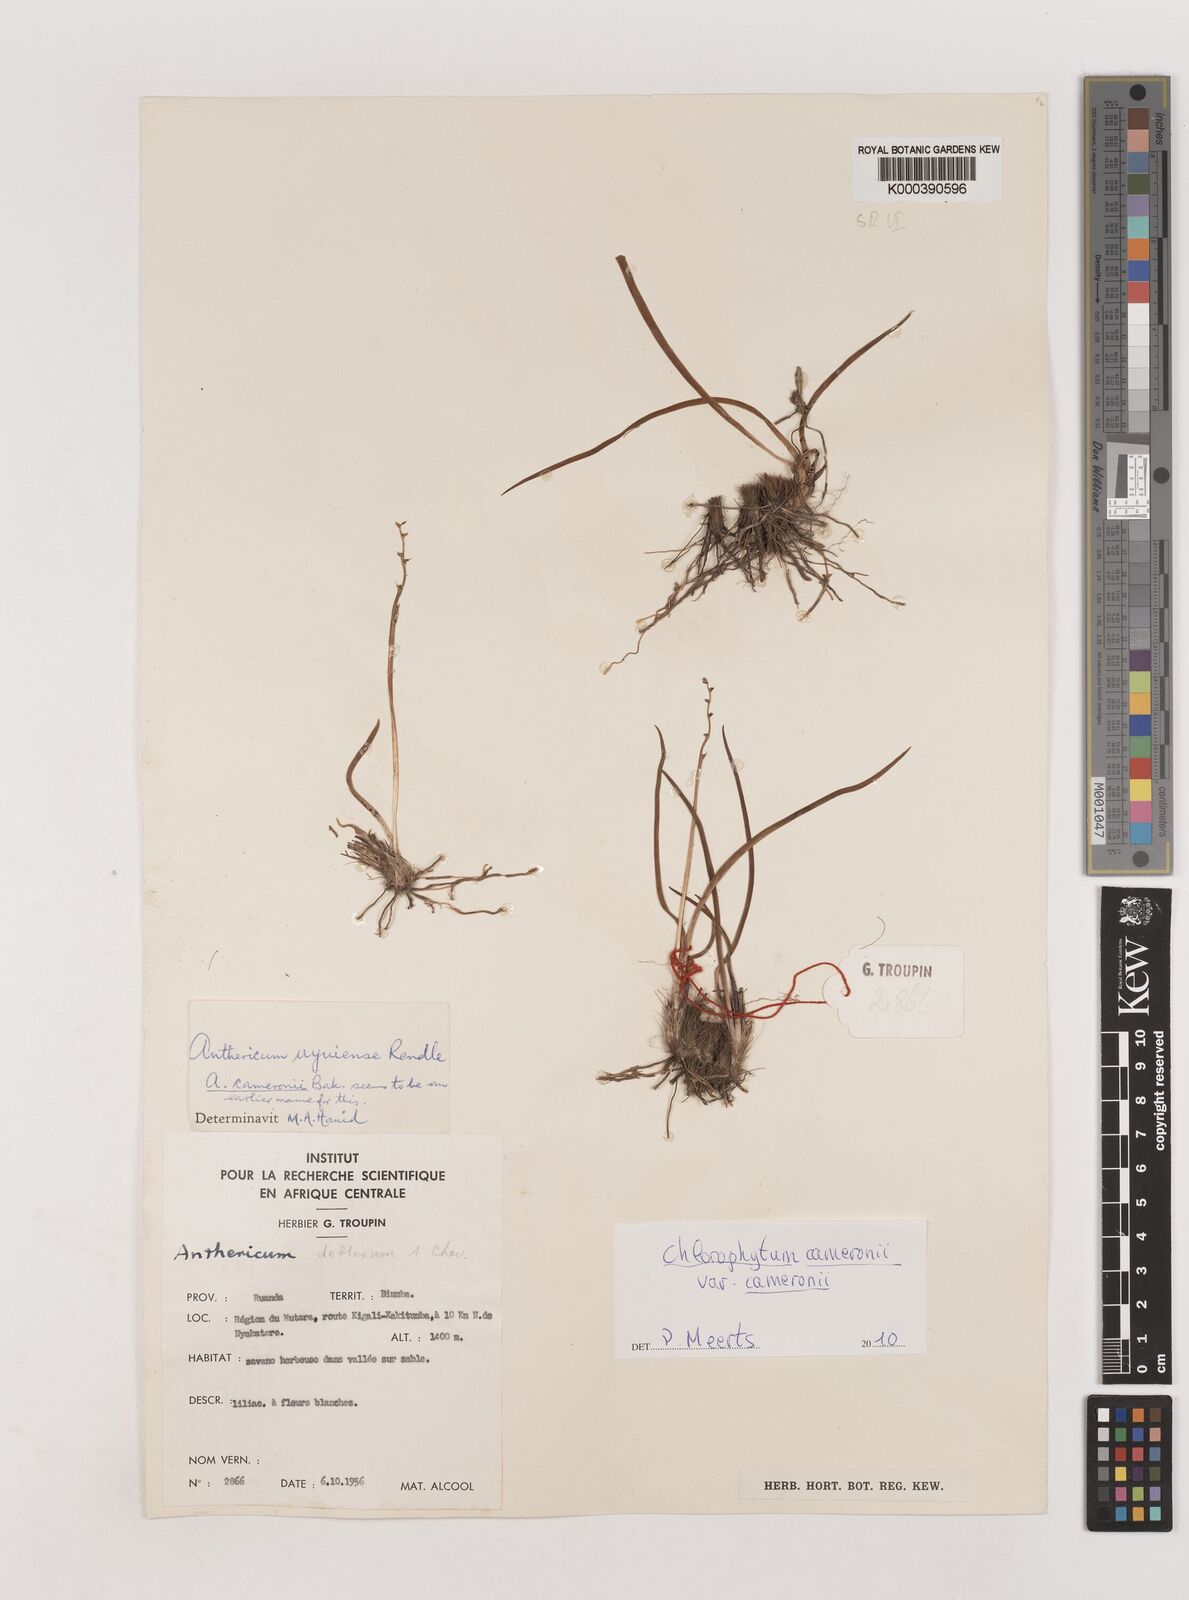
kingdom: Plantae
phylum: Tracheophyta
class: Liliopsida
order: Asparagales
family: Asparagaceae
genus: Chlorophytum
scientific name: Chlorophytum cameronii
